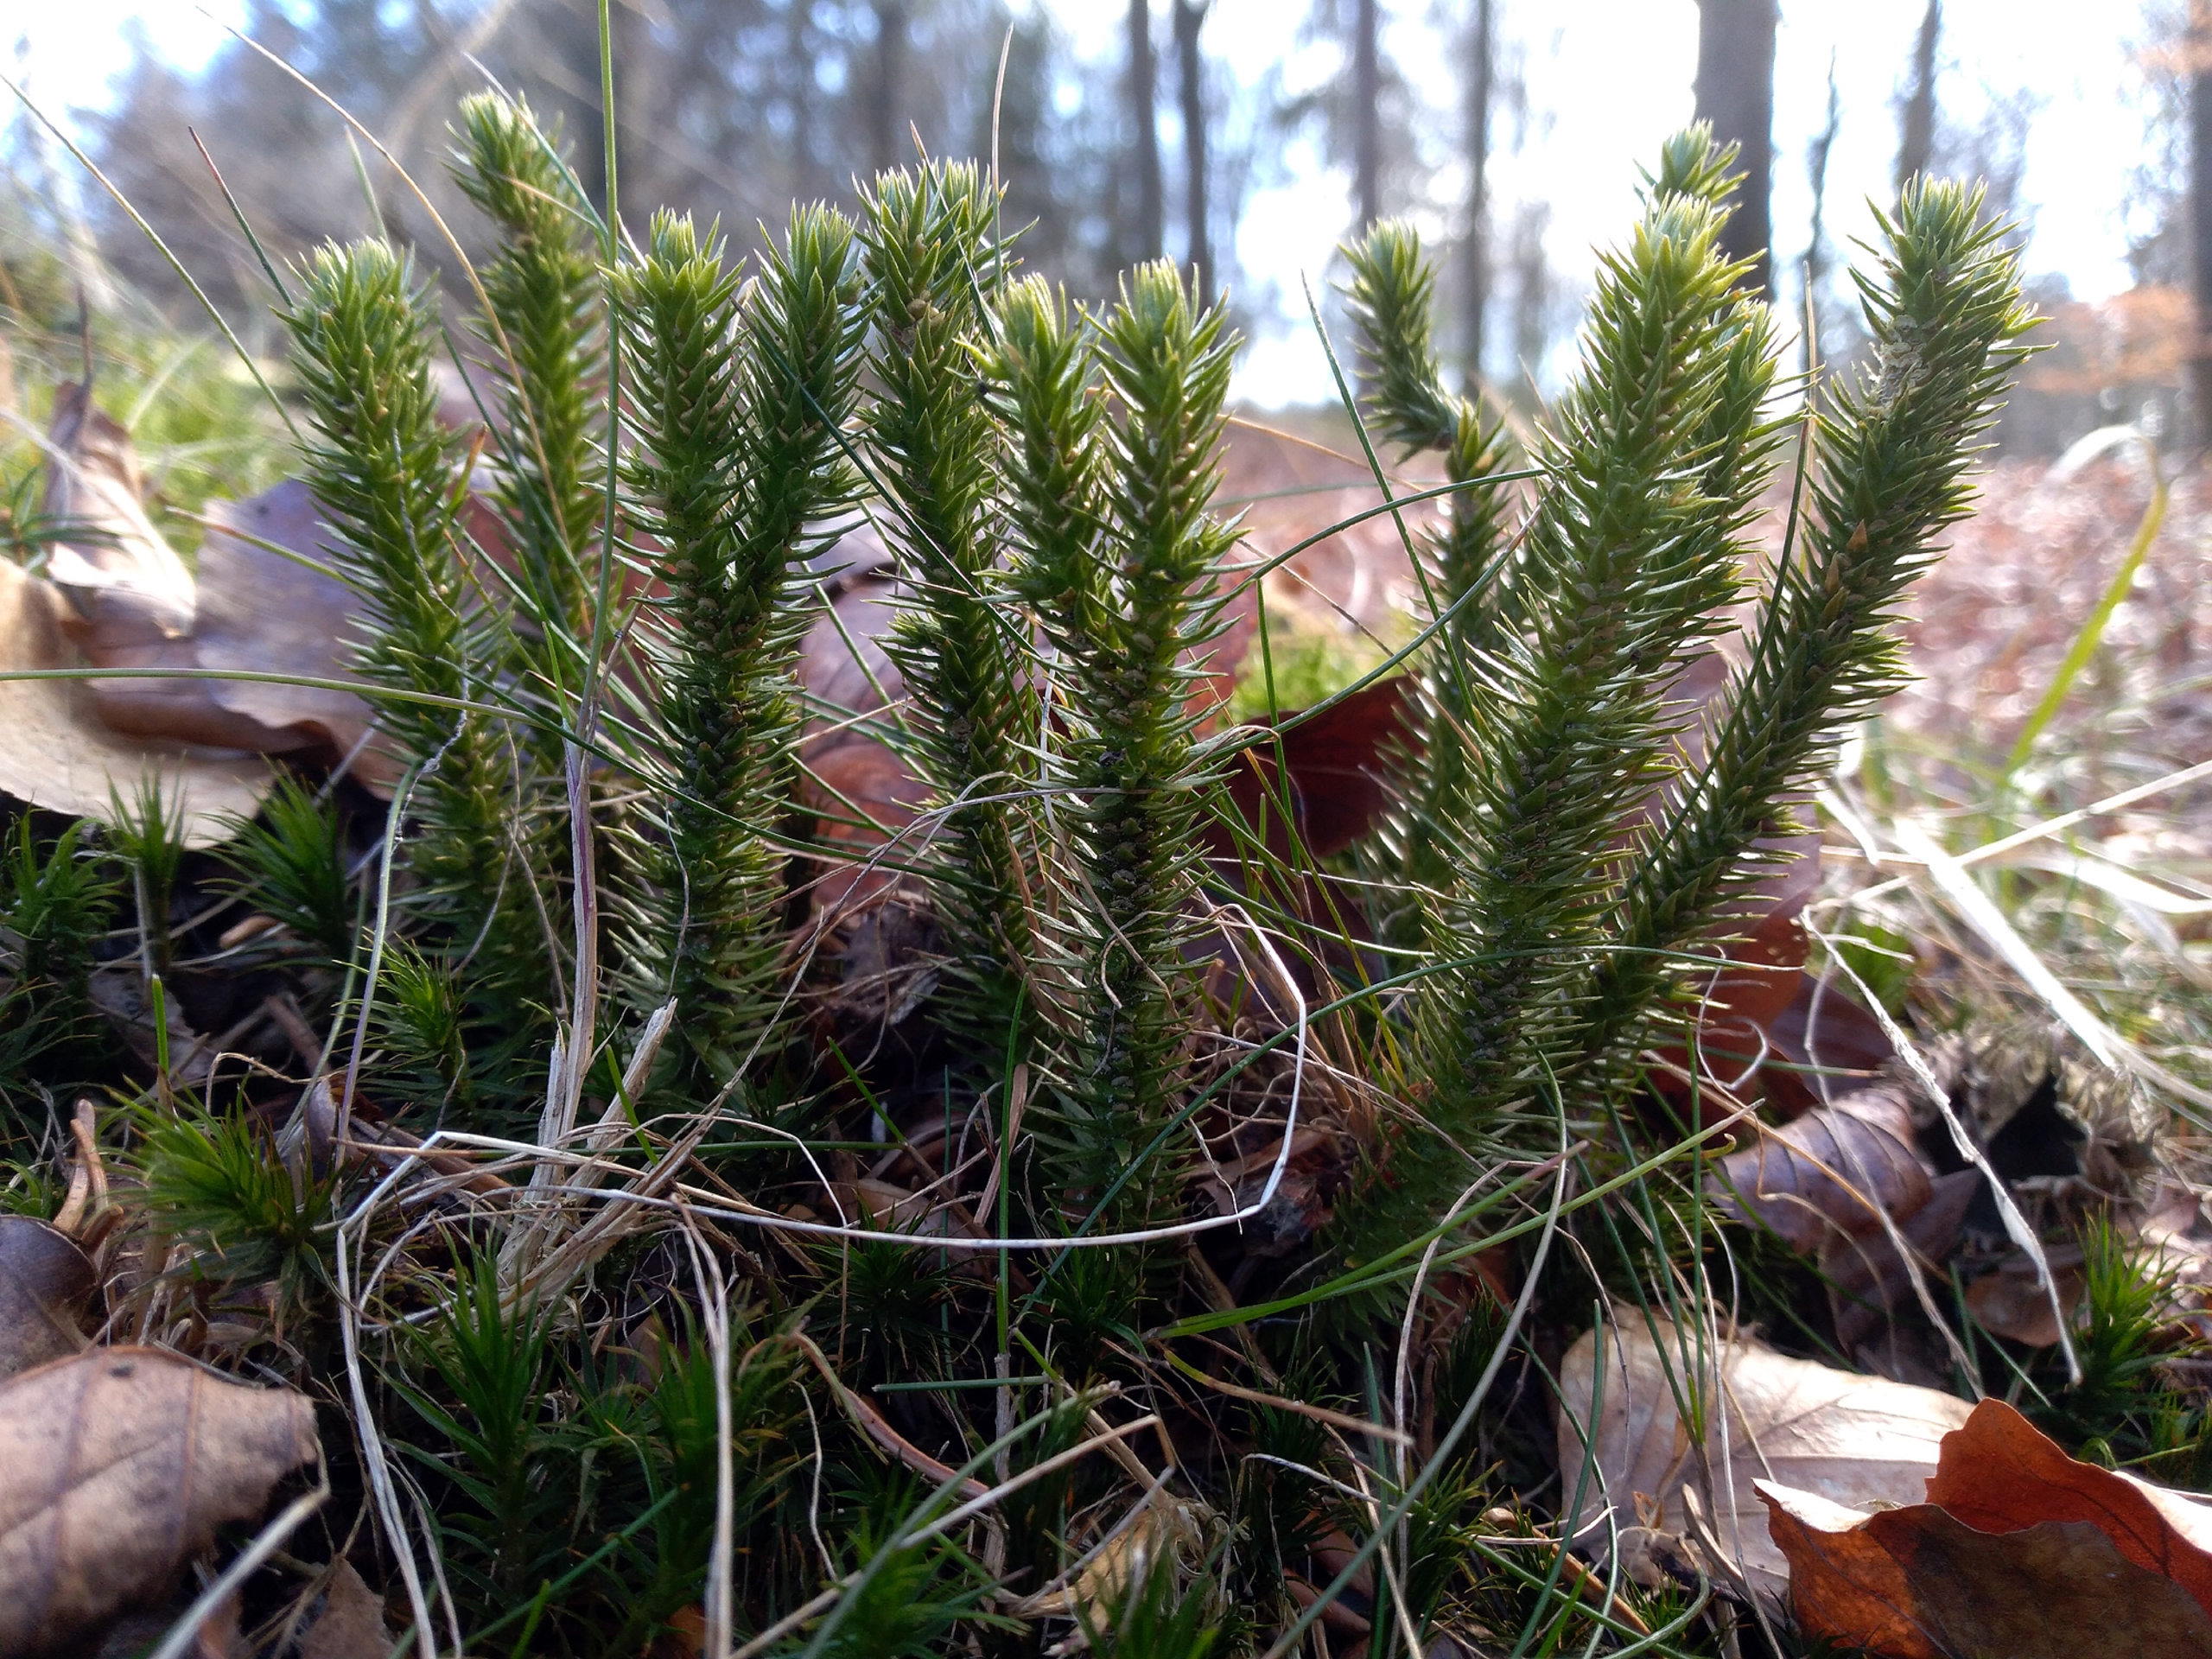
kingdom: Plantae
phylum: Tracheophyta
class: Lycopodiopsida
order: Lycopodiales
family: Lycopodiaceae
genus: Huperzia
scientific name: Huperzia selago
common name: Otteradet ulvefod
